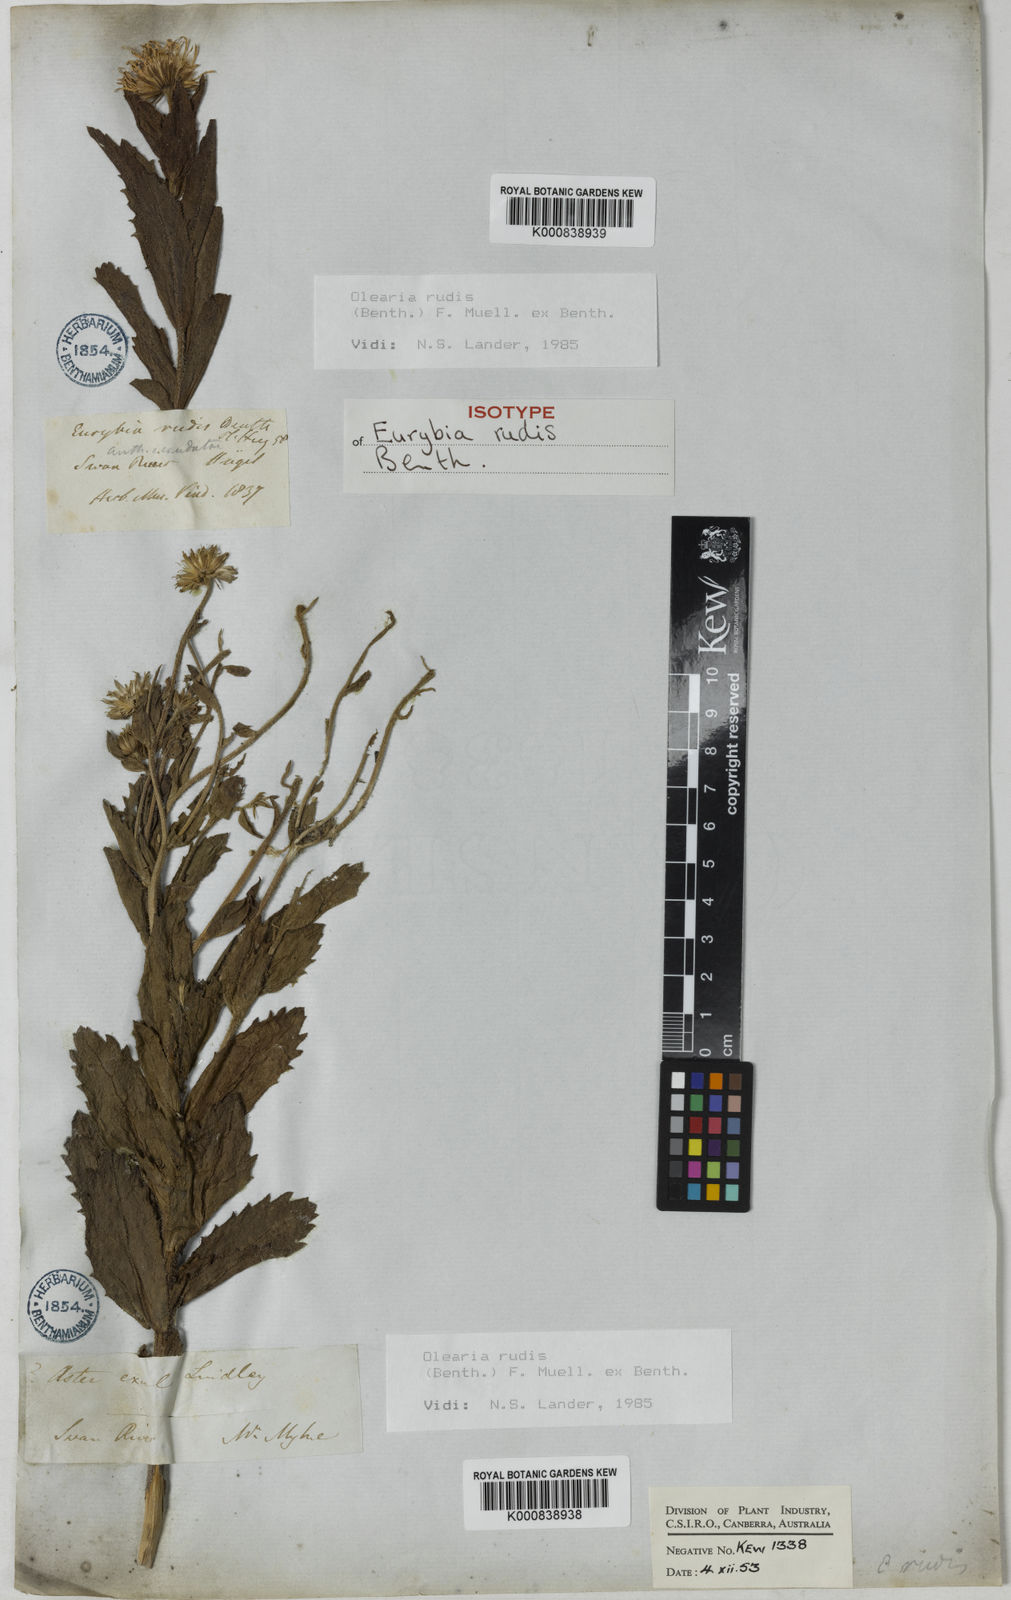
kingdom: Plantae
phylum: Tracheophyta
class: Magnoliopsida
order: Asterales
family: Asteraceae
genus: Muellerolaria
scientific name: Muellerolaria rudis
